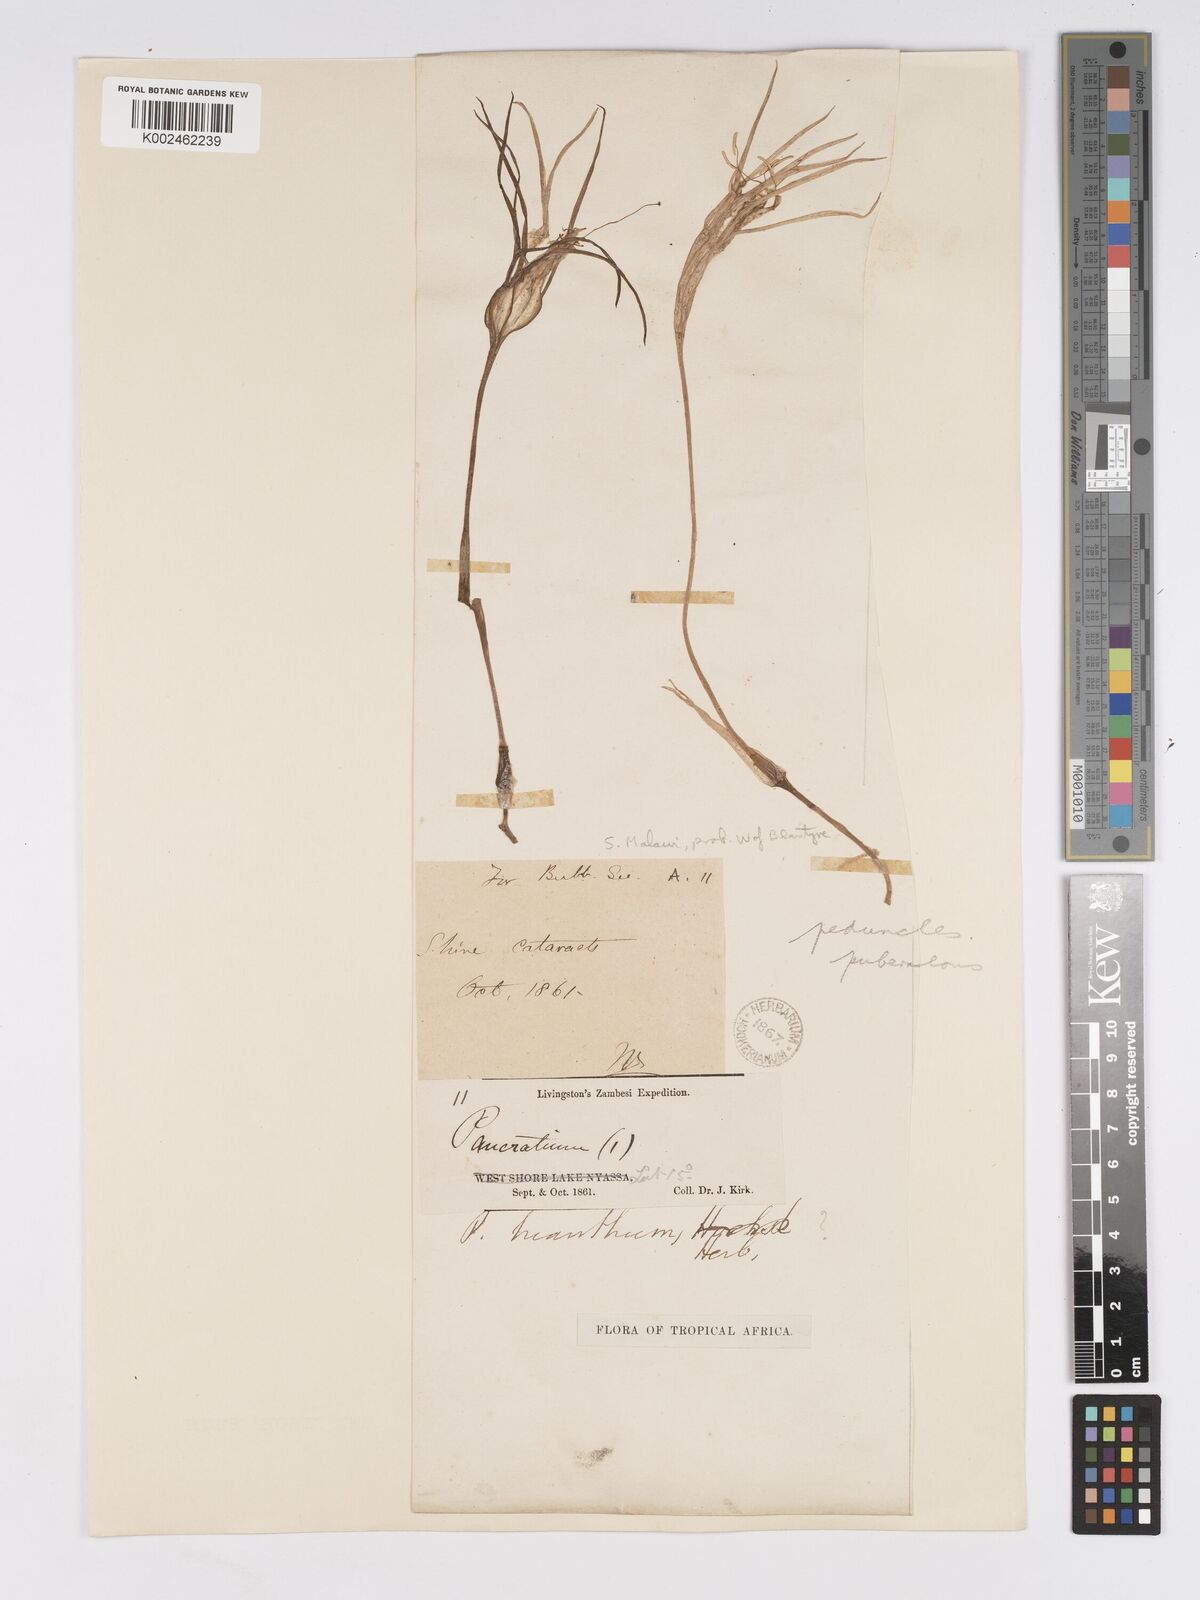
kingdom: Plantae
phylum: Tracheophyta
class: Liliopsida
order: Asparagales
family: Amaryllidaceae
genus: Pancratium
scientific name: Pancratium trianthum
